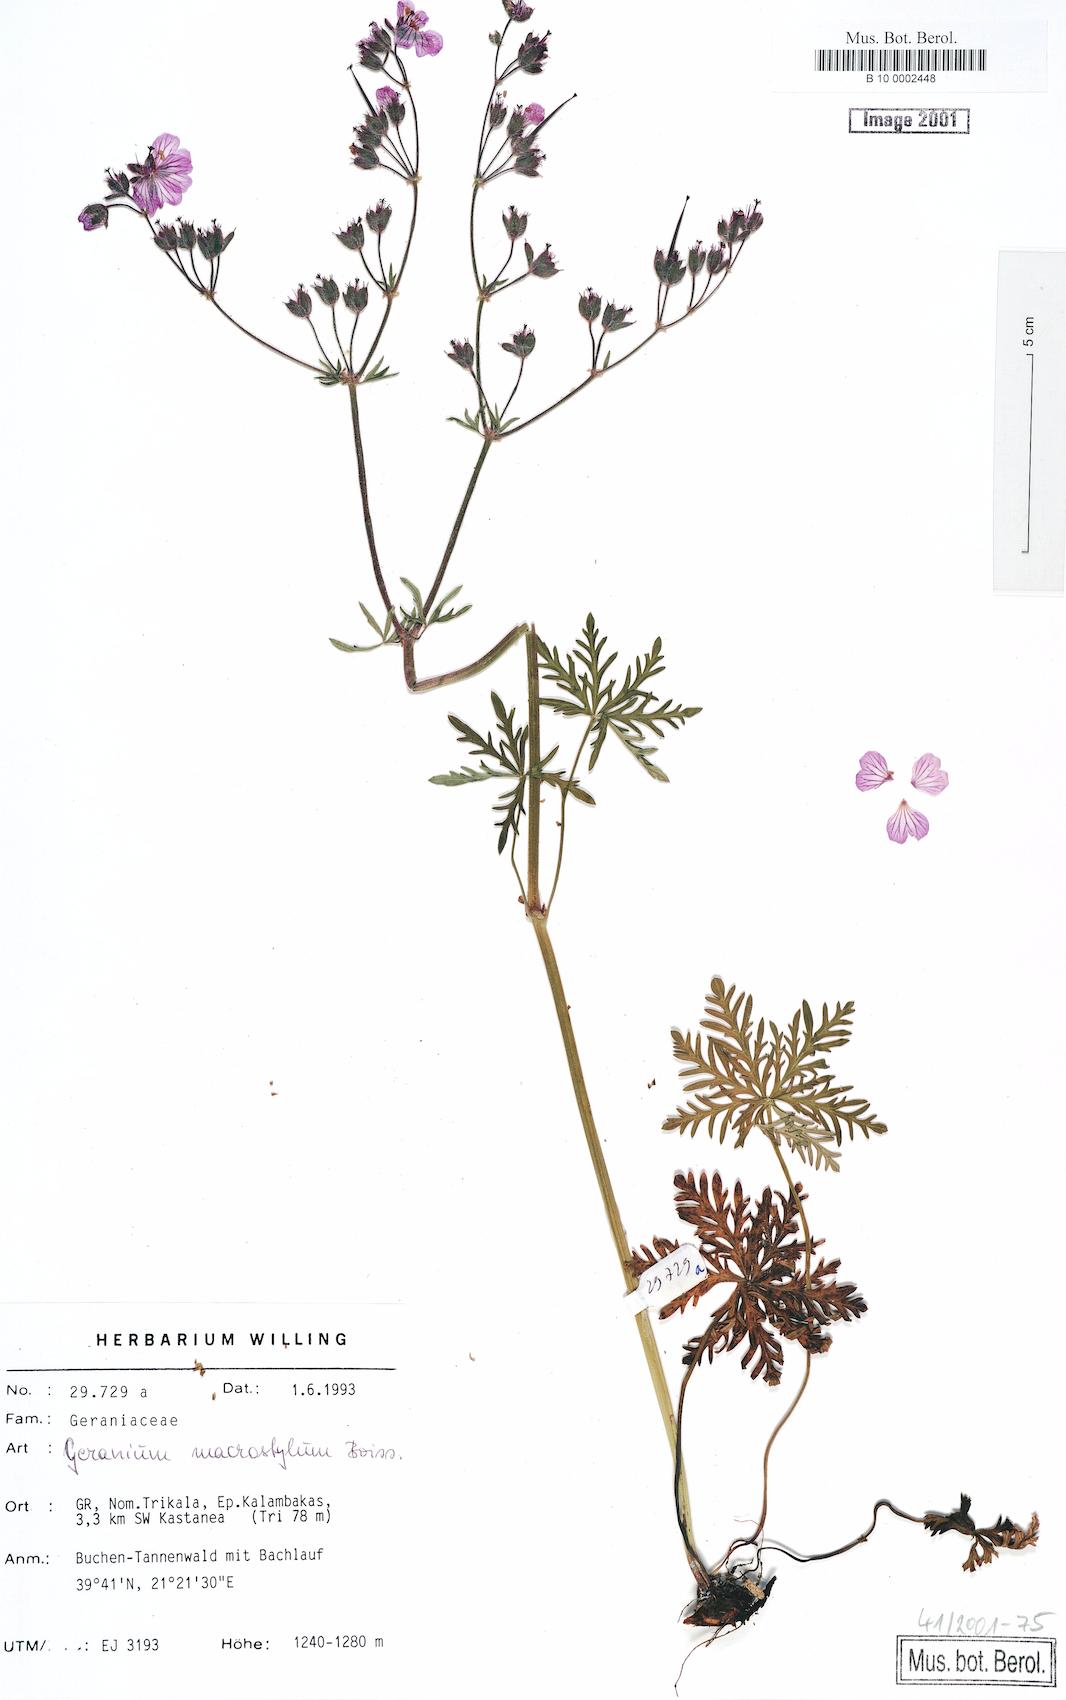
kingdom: Plantae
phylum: Tracheophyta
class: Magnoliopsida
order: Geraniales
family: Geraniaceae
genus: Geranium
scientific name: Geranium macrostylum
